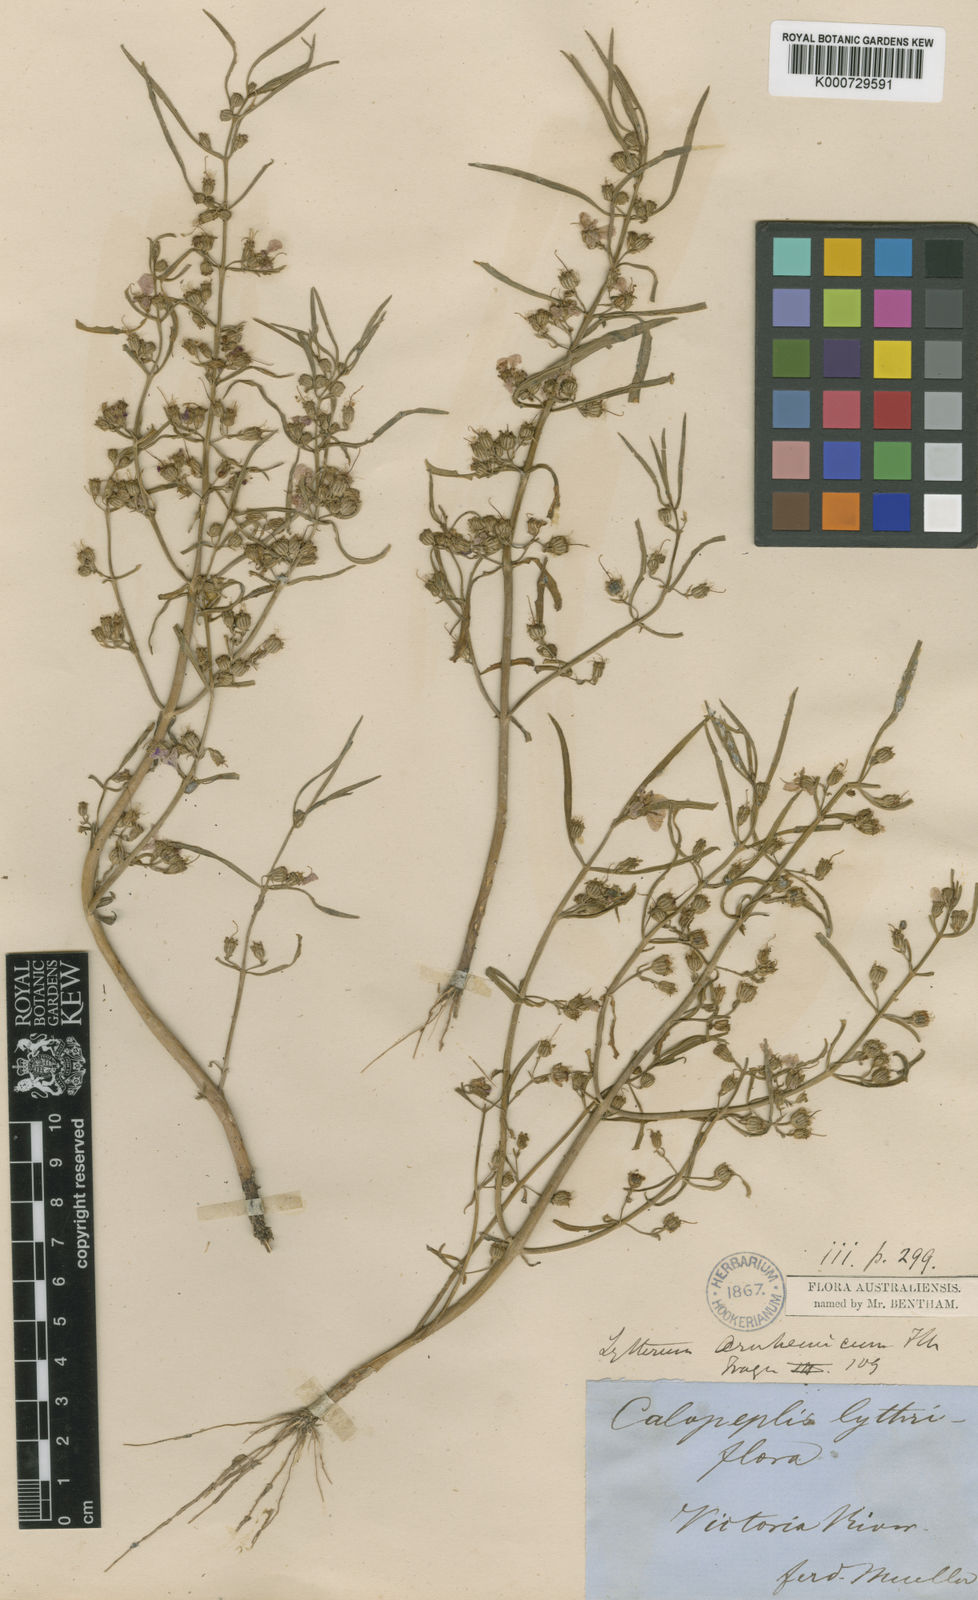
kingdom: Plantae
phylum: Tracheophyta
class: Magnoliopsida
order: Myrtales
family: Lythraceae
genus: Ammannia
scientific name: Ammannia arnhemica
